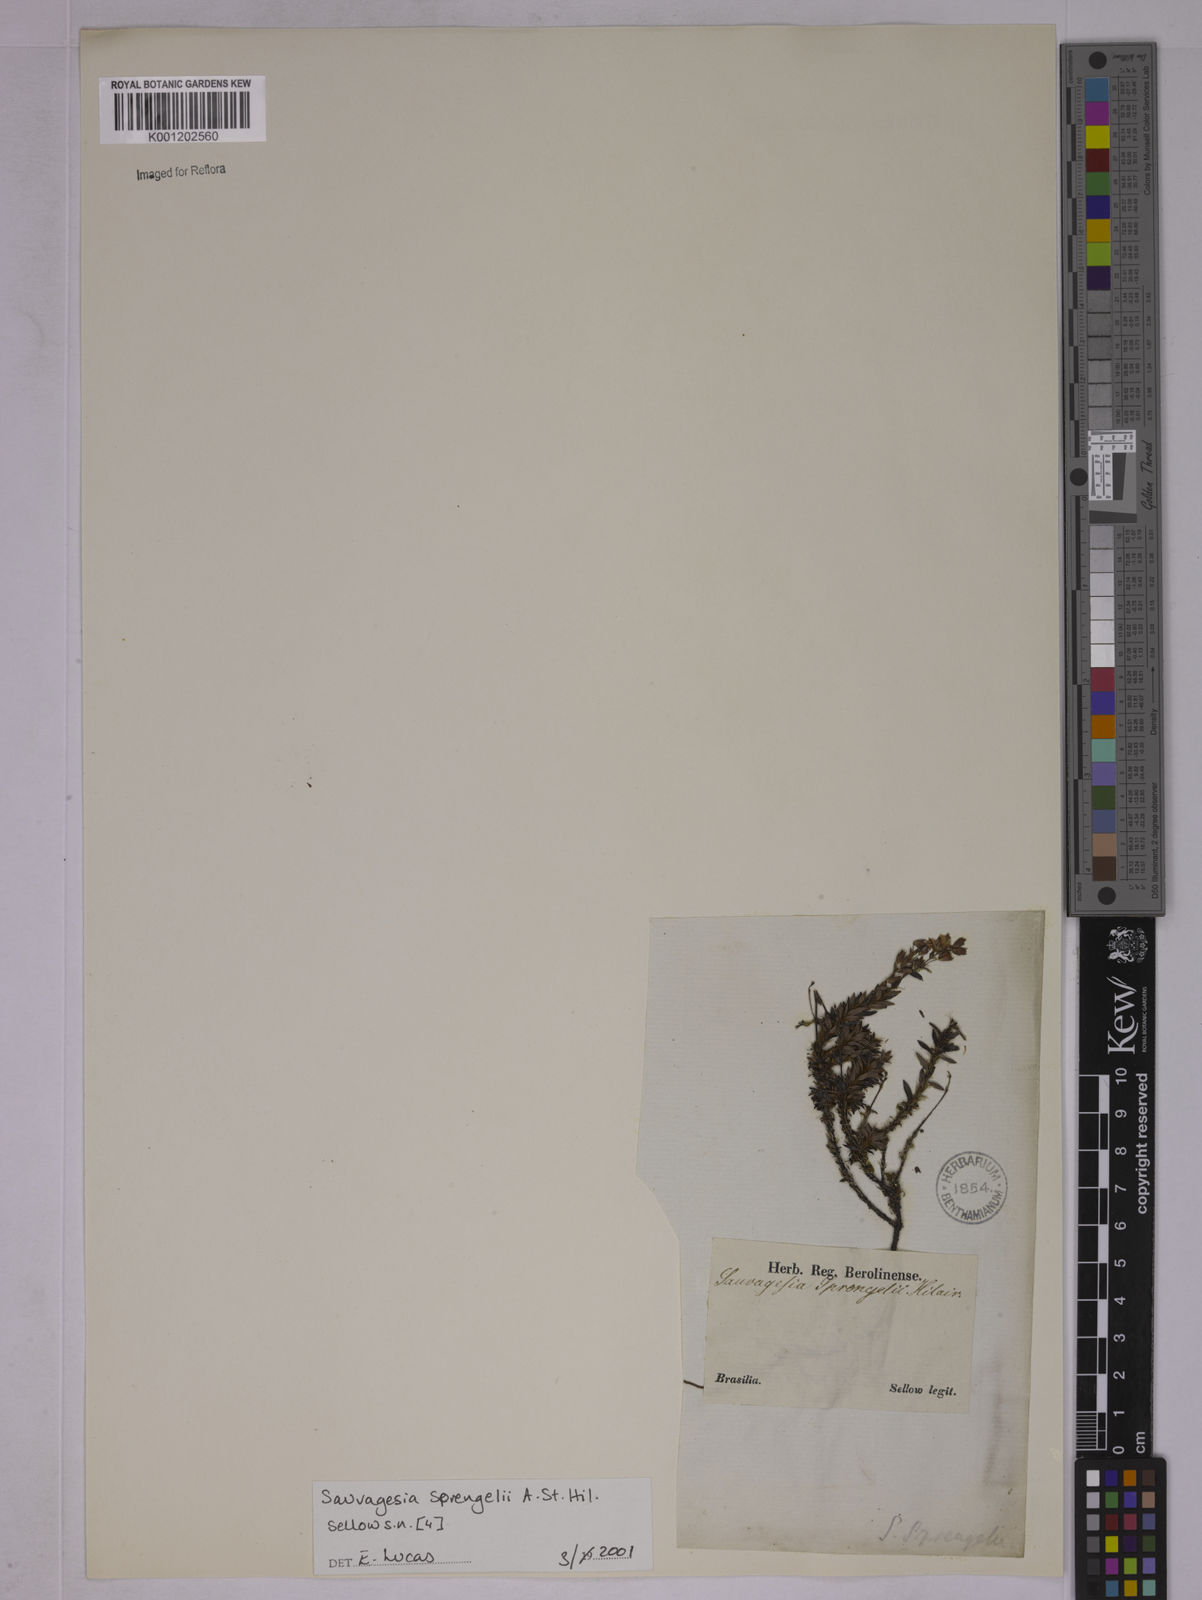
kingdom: Plantae
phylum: Tracheophyta
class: Magnoliopsida
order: Malpighiales
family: Ochnaceae
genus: Sauvagesia
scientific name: Sauvagesia sprengelii
